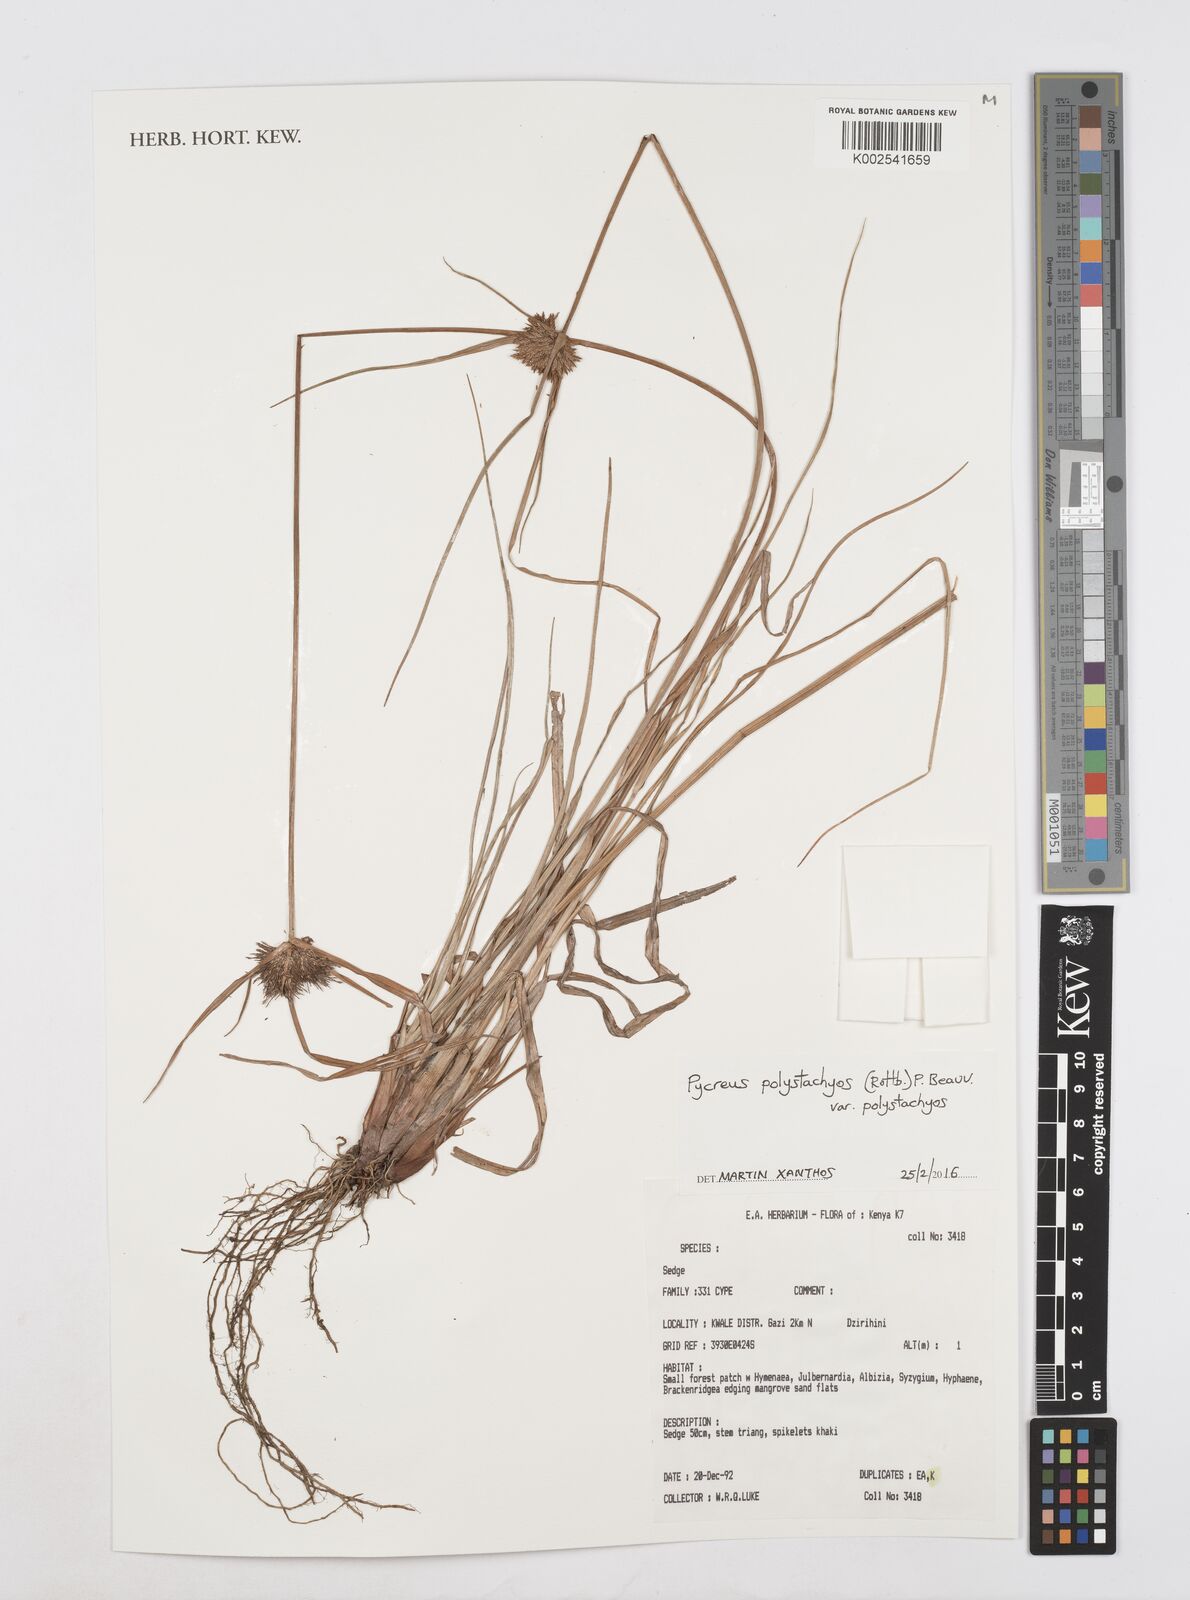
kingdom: Plantae
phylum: Tracheophyta
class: Liliopsida
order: Poales
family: Cyperaceae
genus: Cyperus
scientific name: Cyperus polystachyos
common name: Bunchy flat sedge
